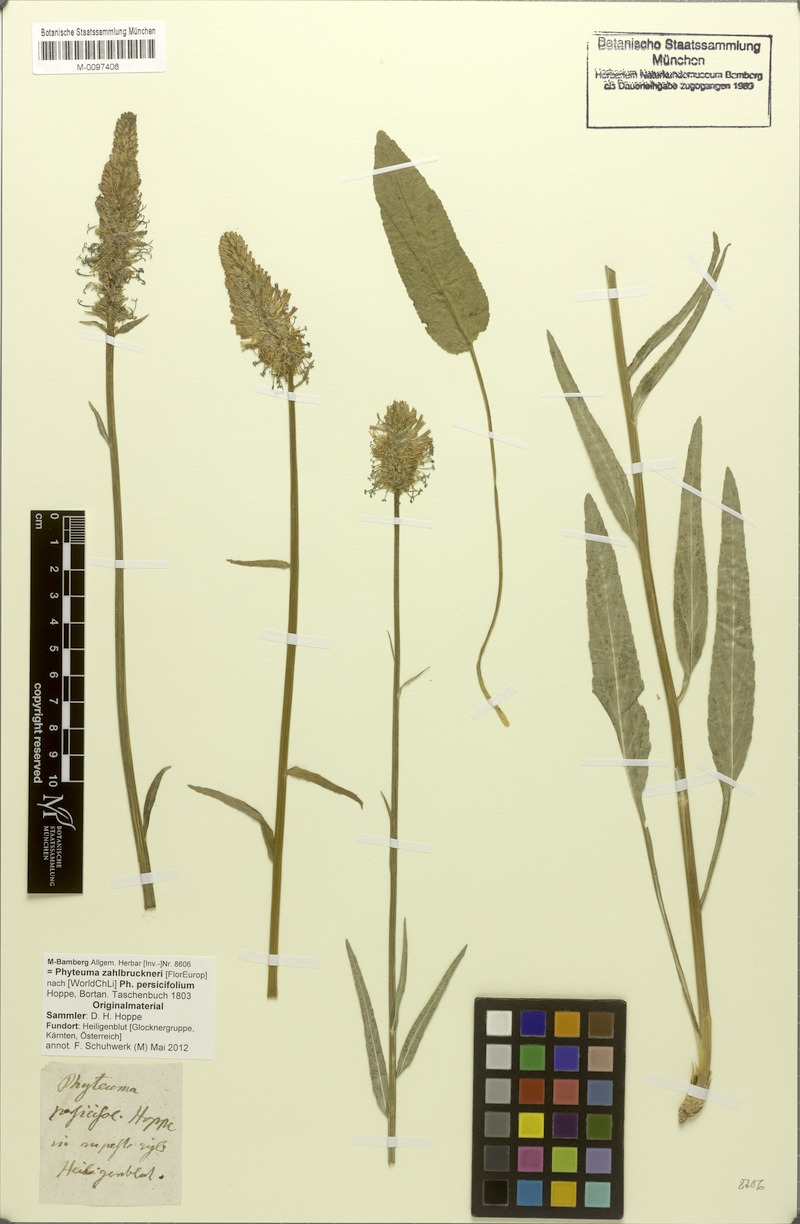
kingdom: Plantae
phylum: Tracheophyta
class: Magnoliopsida
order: Asterales
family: Campanulaceae
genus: Phyteuma
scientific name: Phyteuma persicifolium
